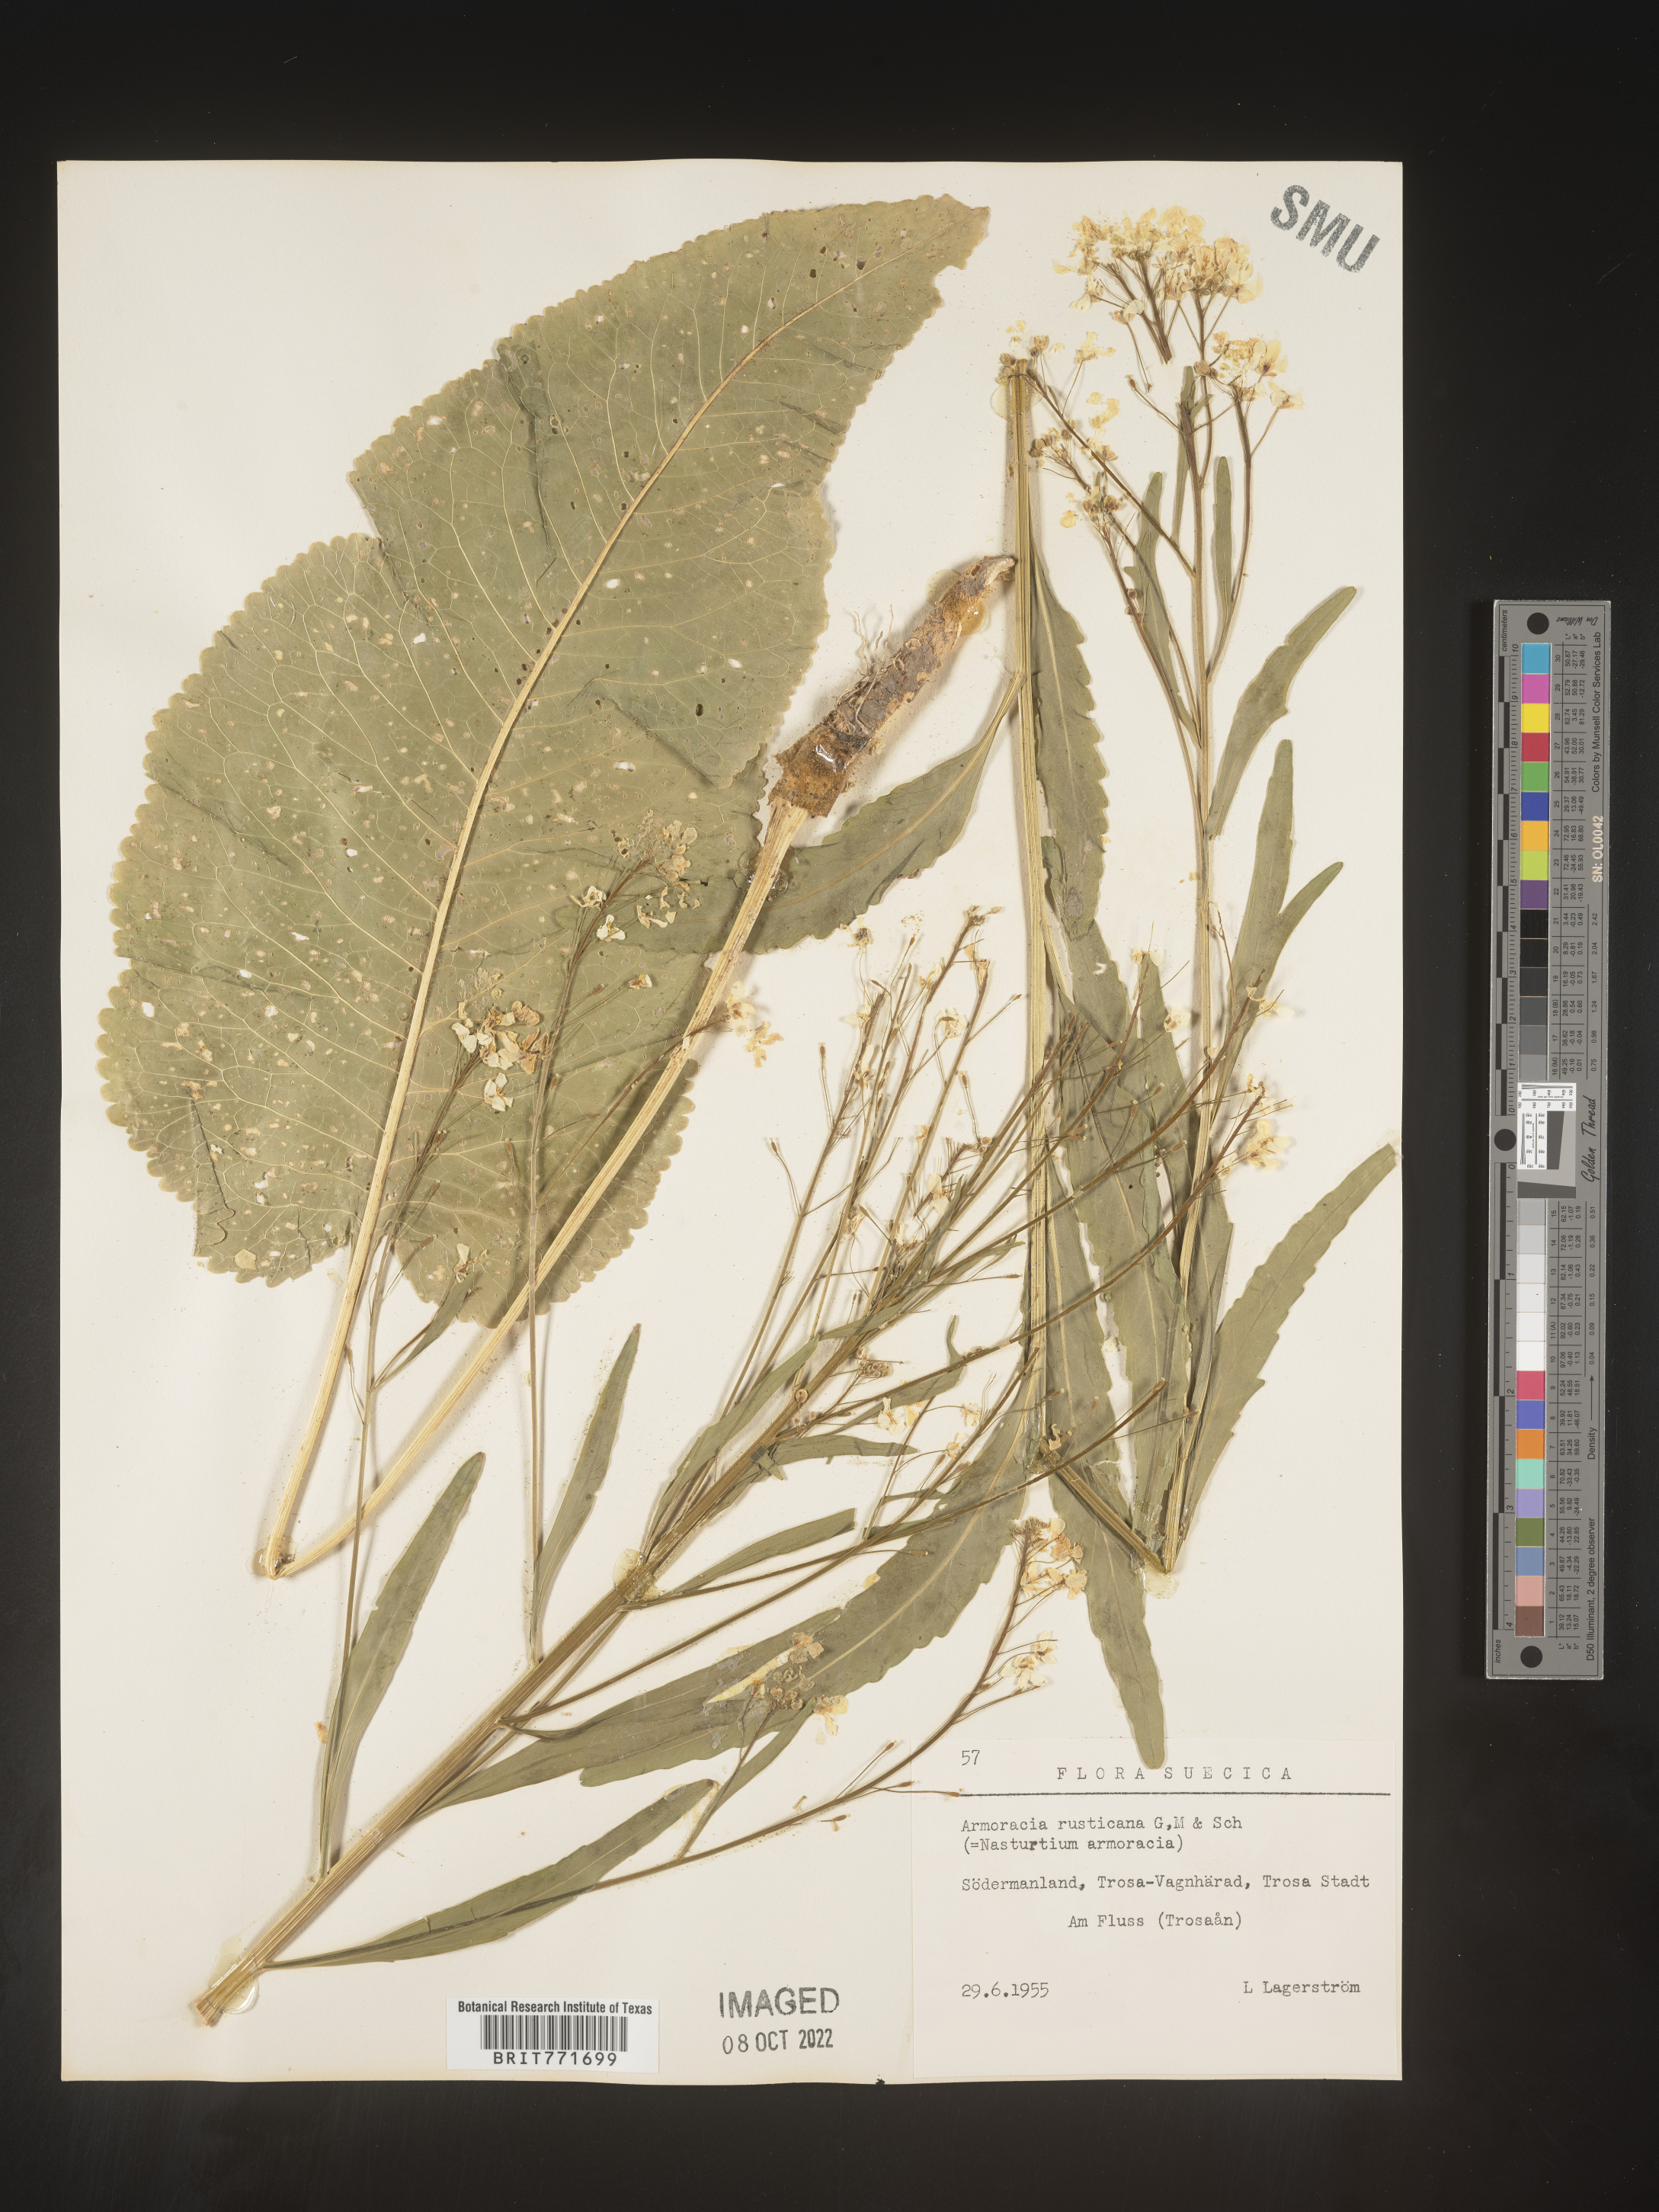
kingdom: Plantae
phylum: Tracheophyta
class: Magnoliopsida
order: Brassicales
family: Brassicaceae
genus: Armoracia
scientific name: Armoracia
